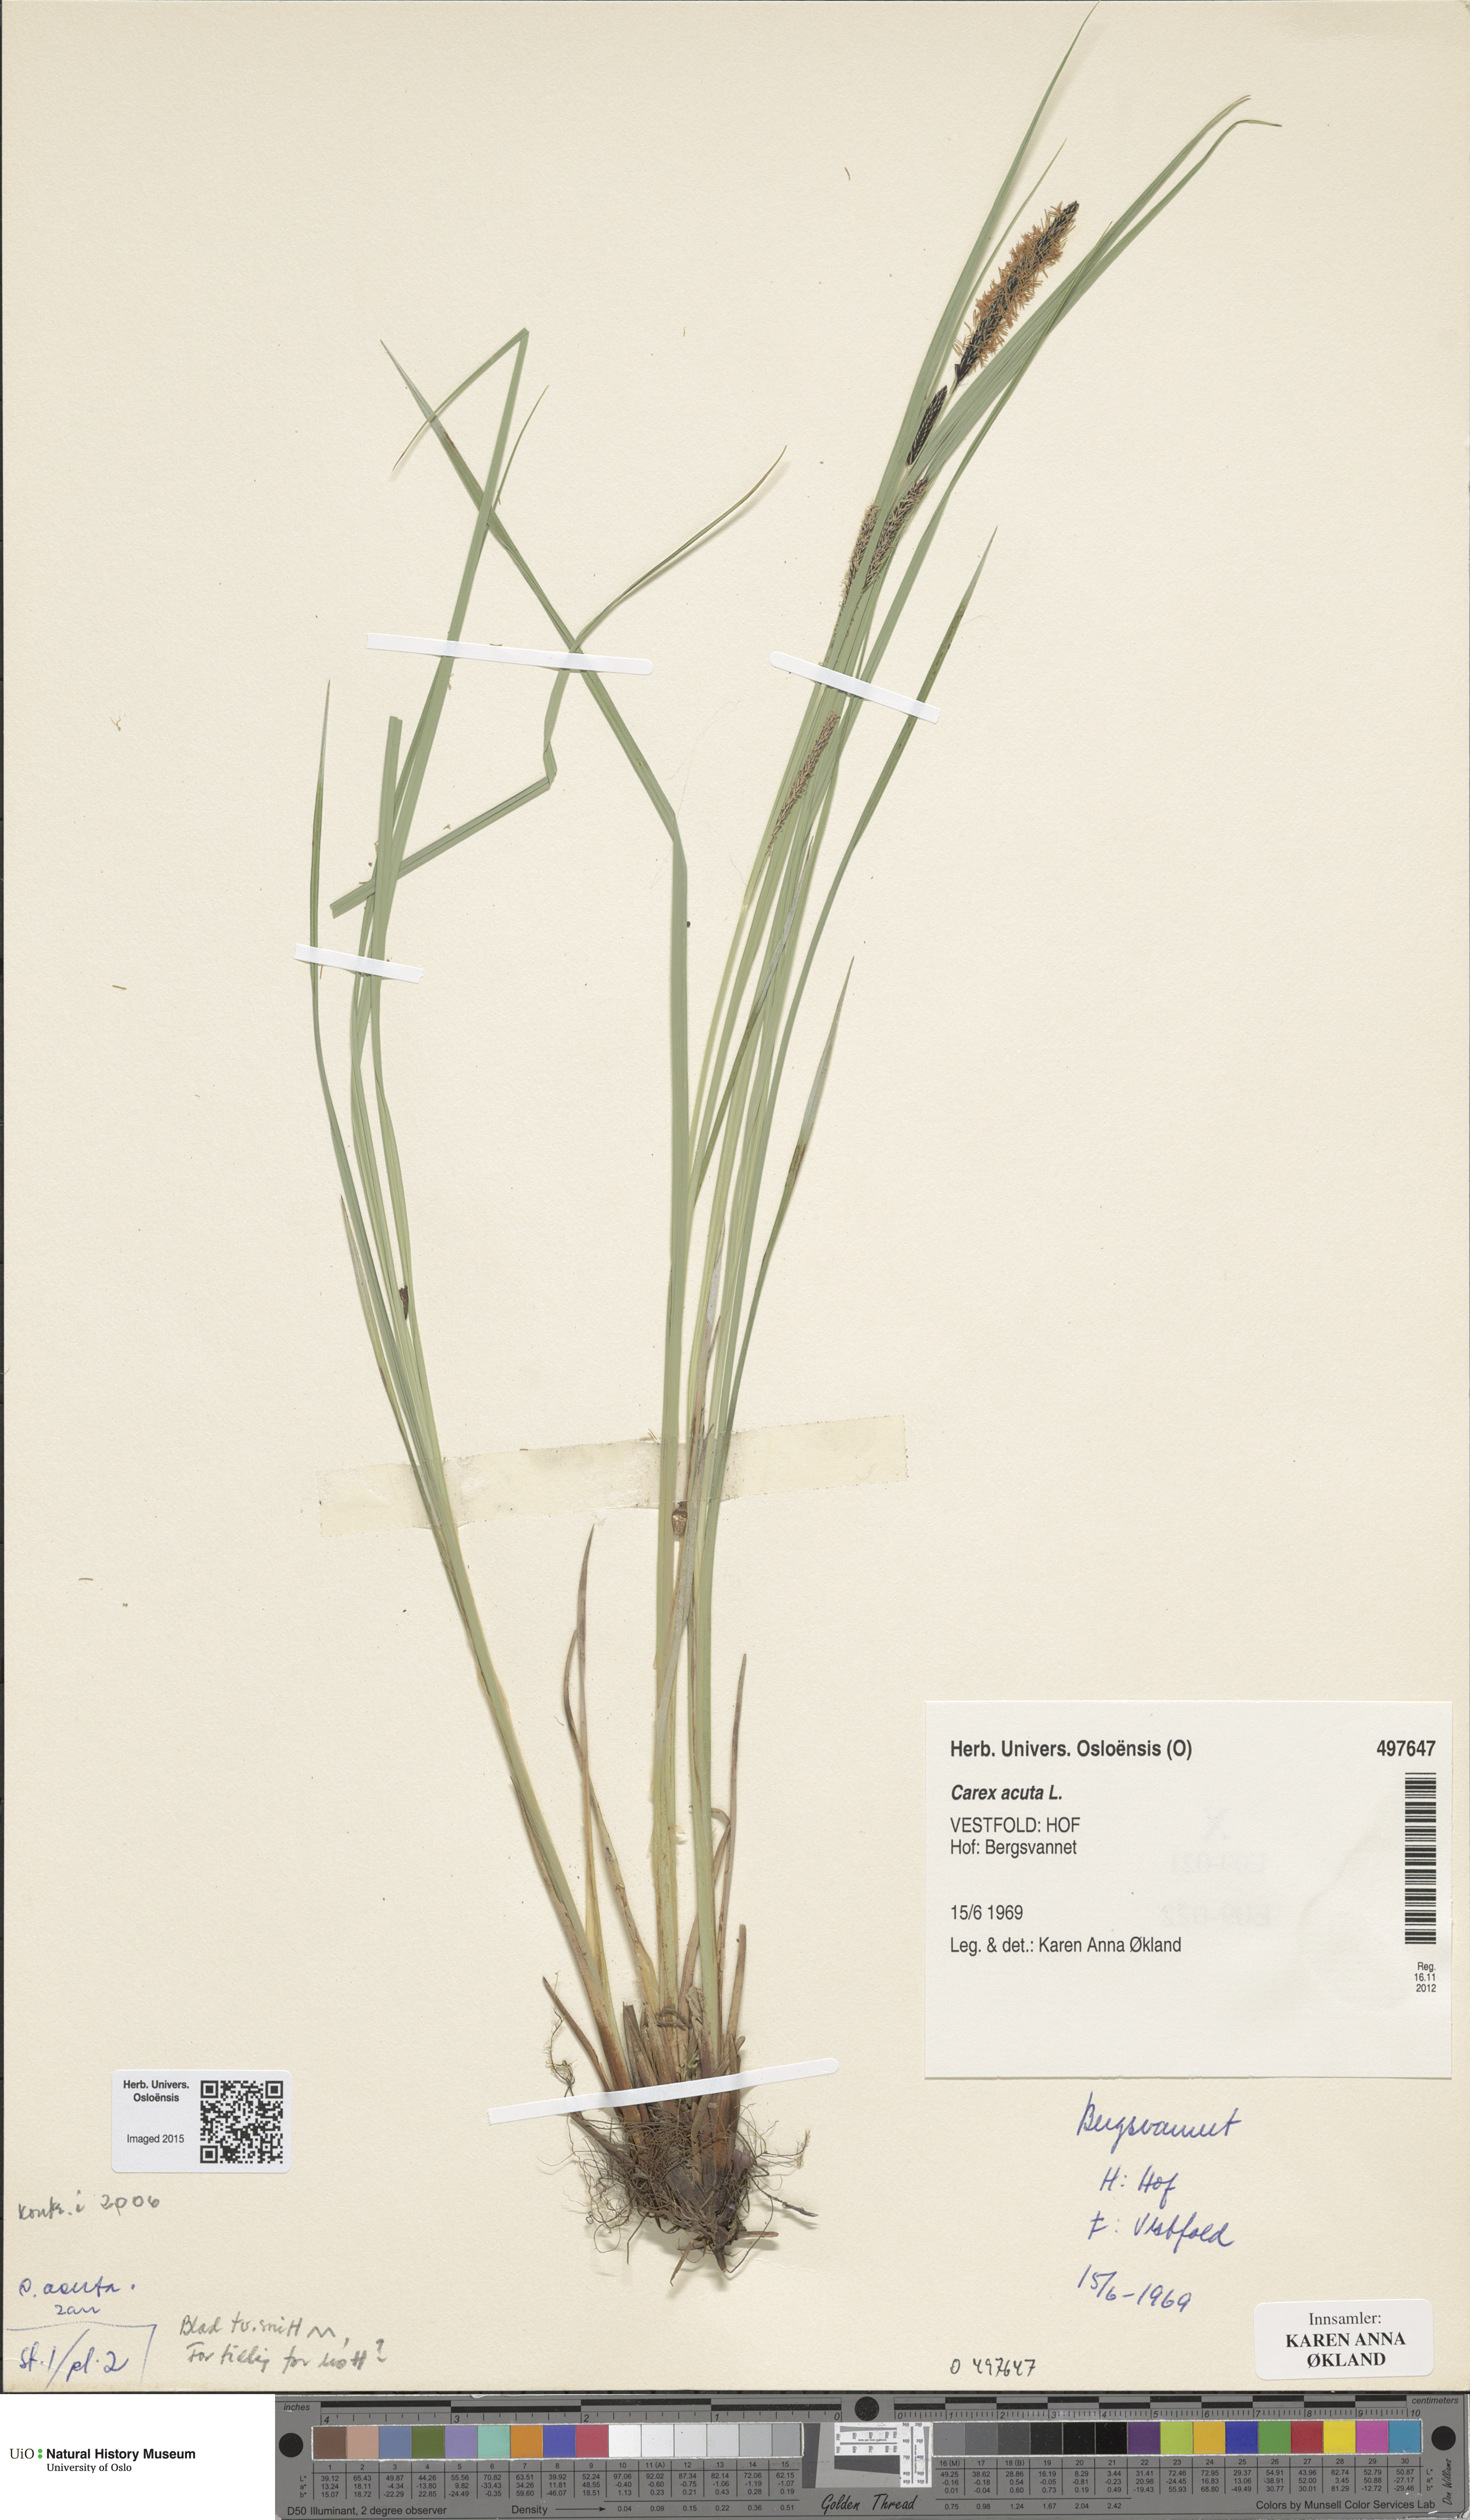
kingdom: Plantae
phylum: Tracheophyta
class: Liliopsida
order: Poales
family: Cyperaceae
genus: Carex
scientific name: Carex acuta
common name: Slender tufted-sedge
